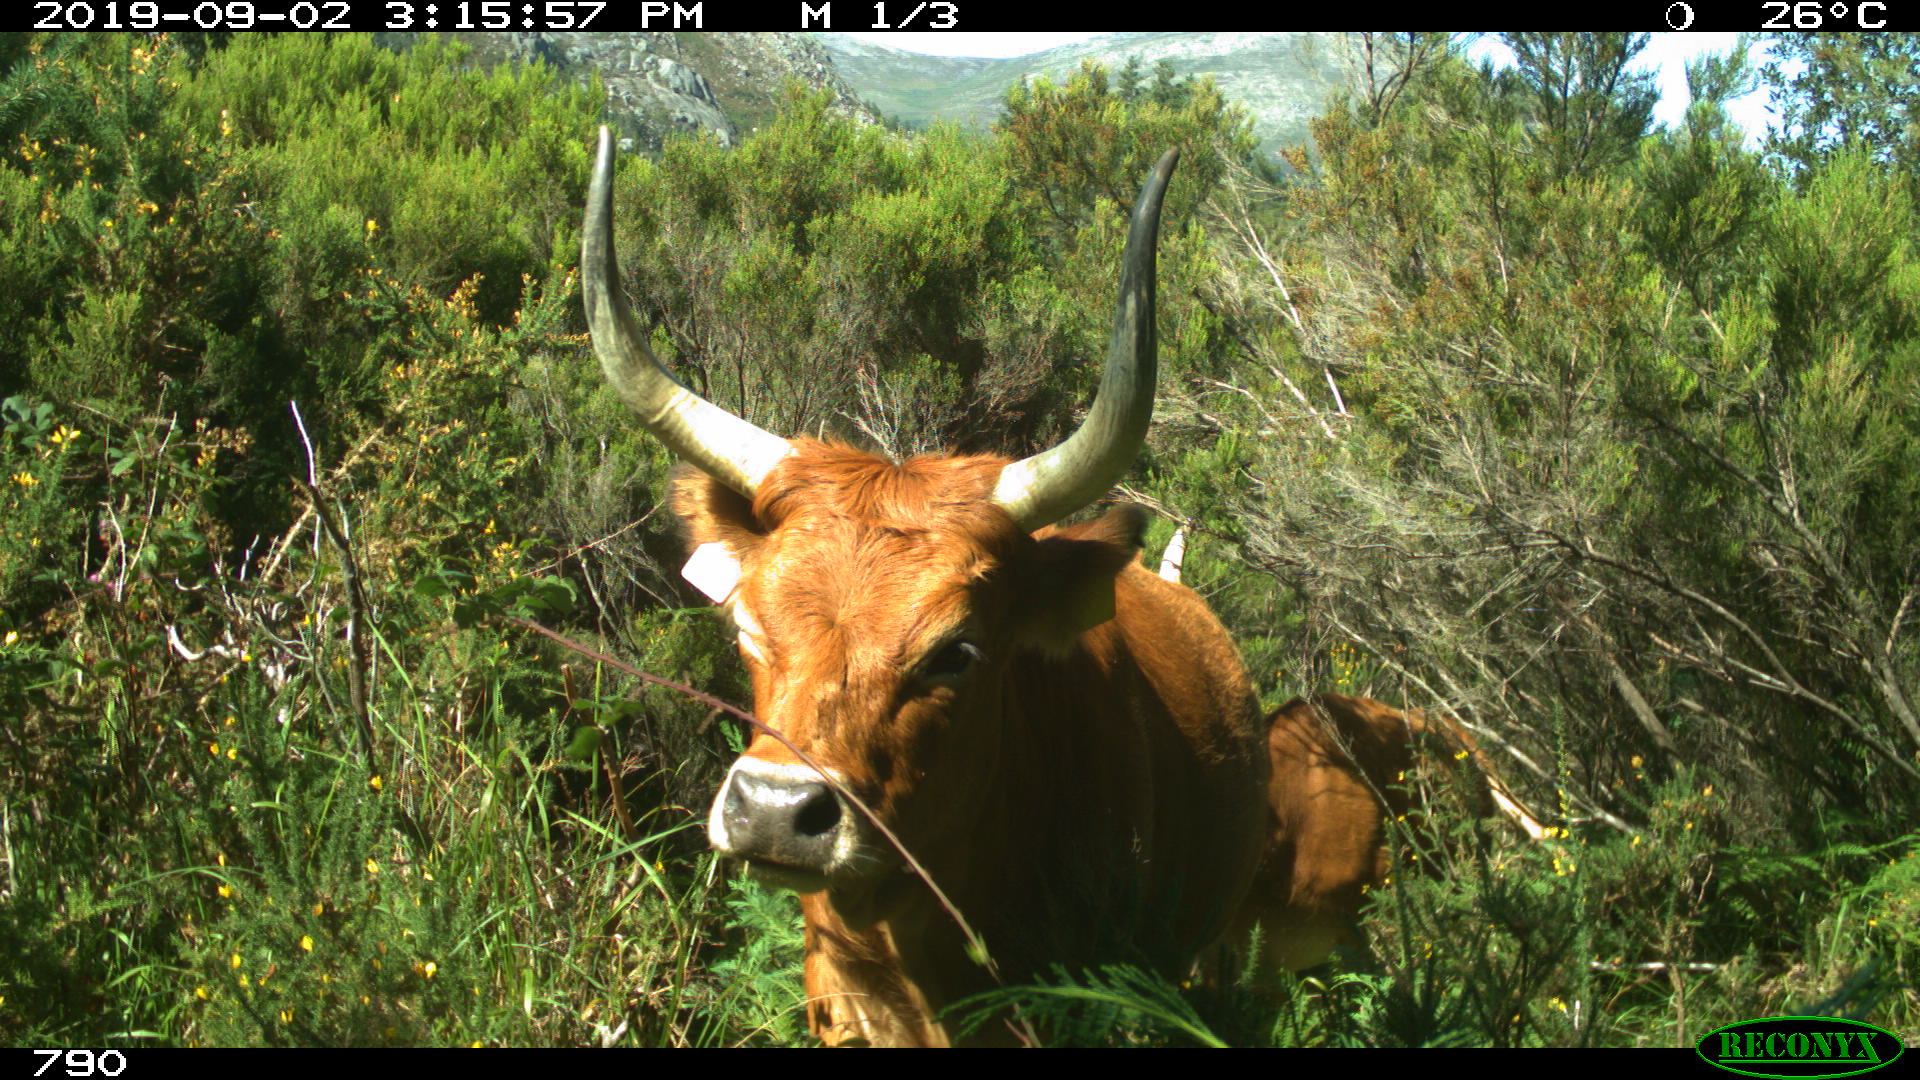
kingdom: Animalia
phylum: Chordata
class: Mammalia
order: Artiodactyla
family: Bovidae
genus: Bos
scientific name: Bos taurus
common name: Domesticated cattle
